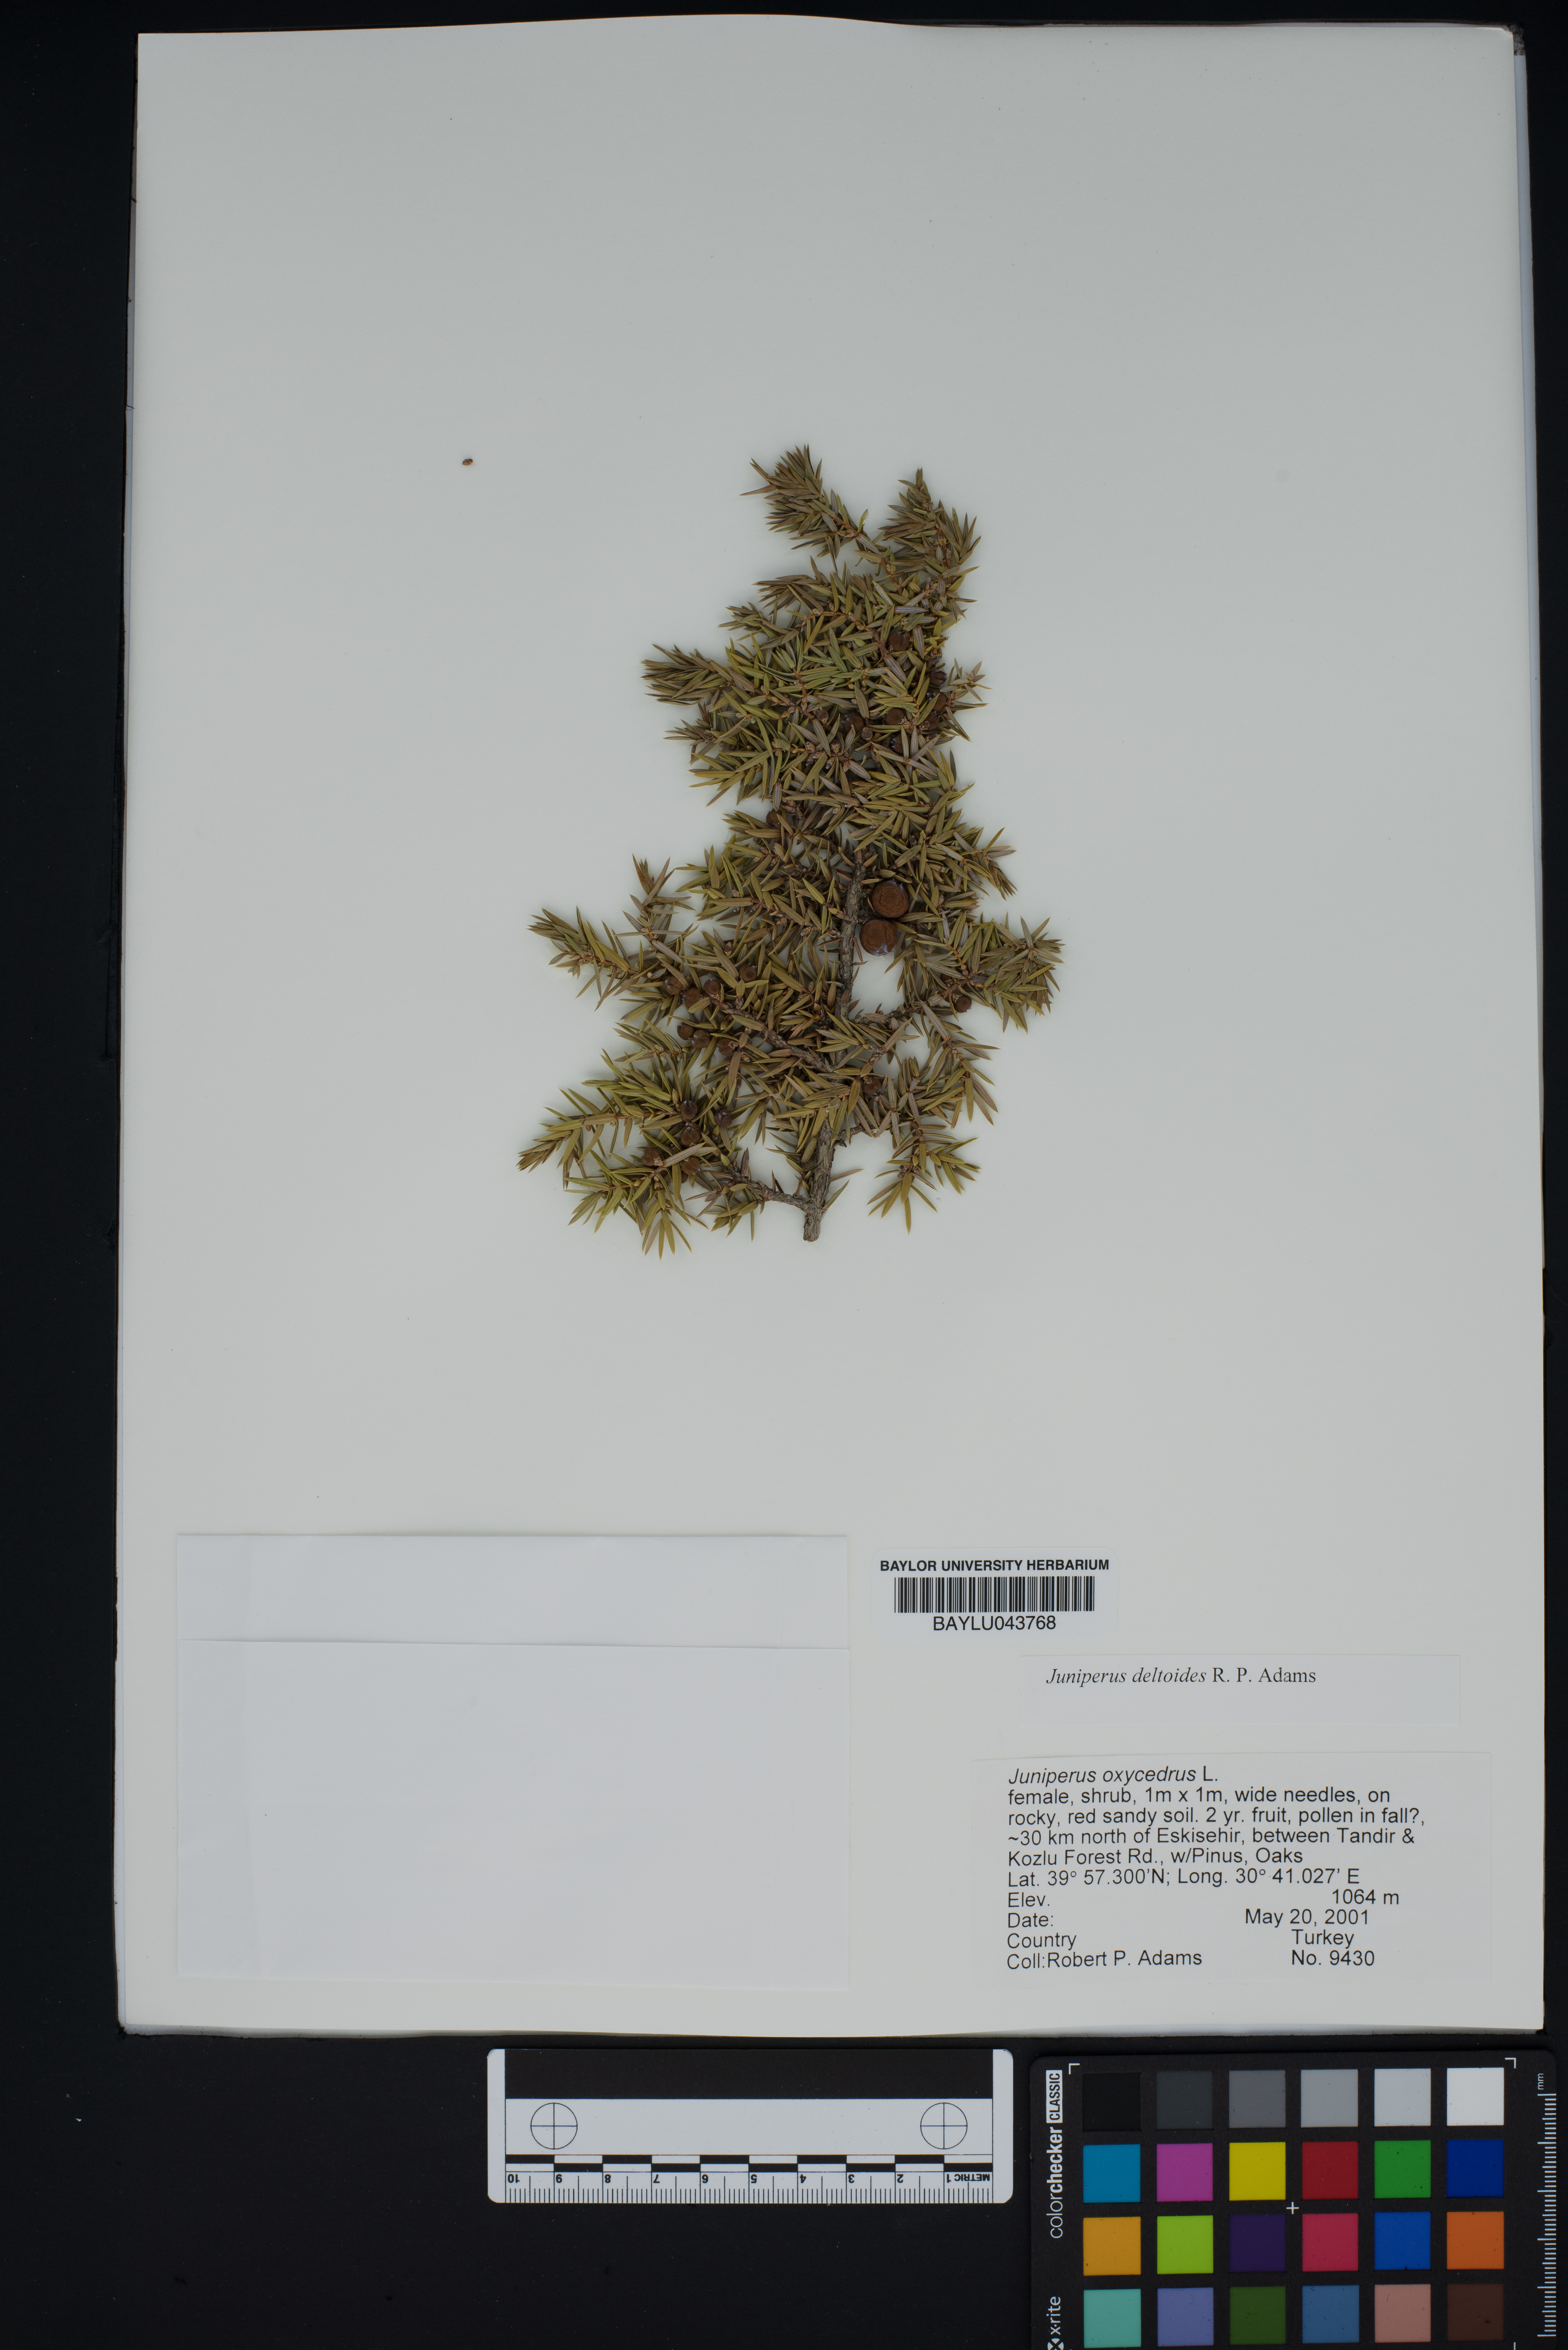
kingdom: Plantae
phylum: Tracheophyta
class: Pinopsida
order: Pinales
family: Cupressaceae
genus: Juniperus
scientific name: Juniperus oxycedrus
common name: Prickly juniper
